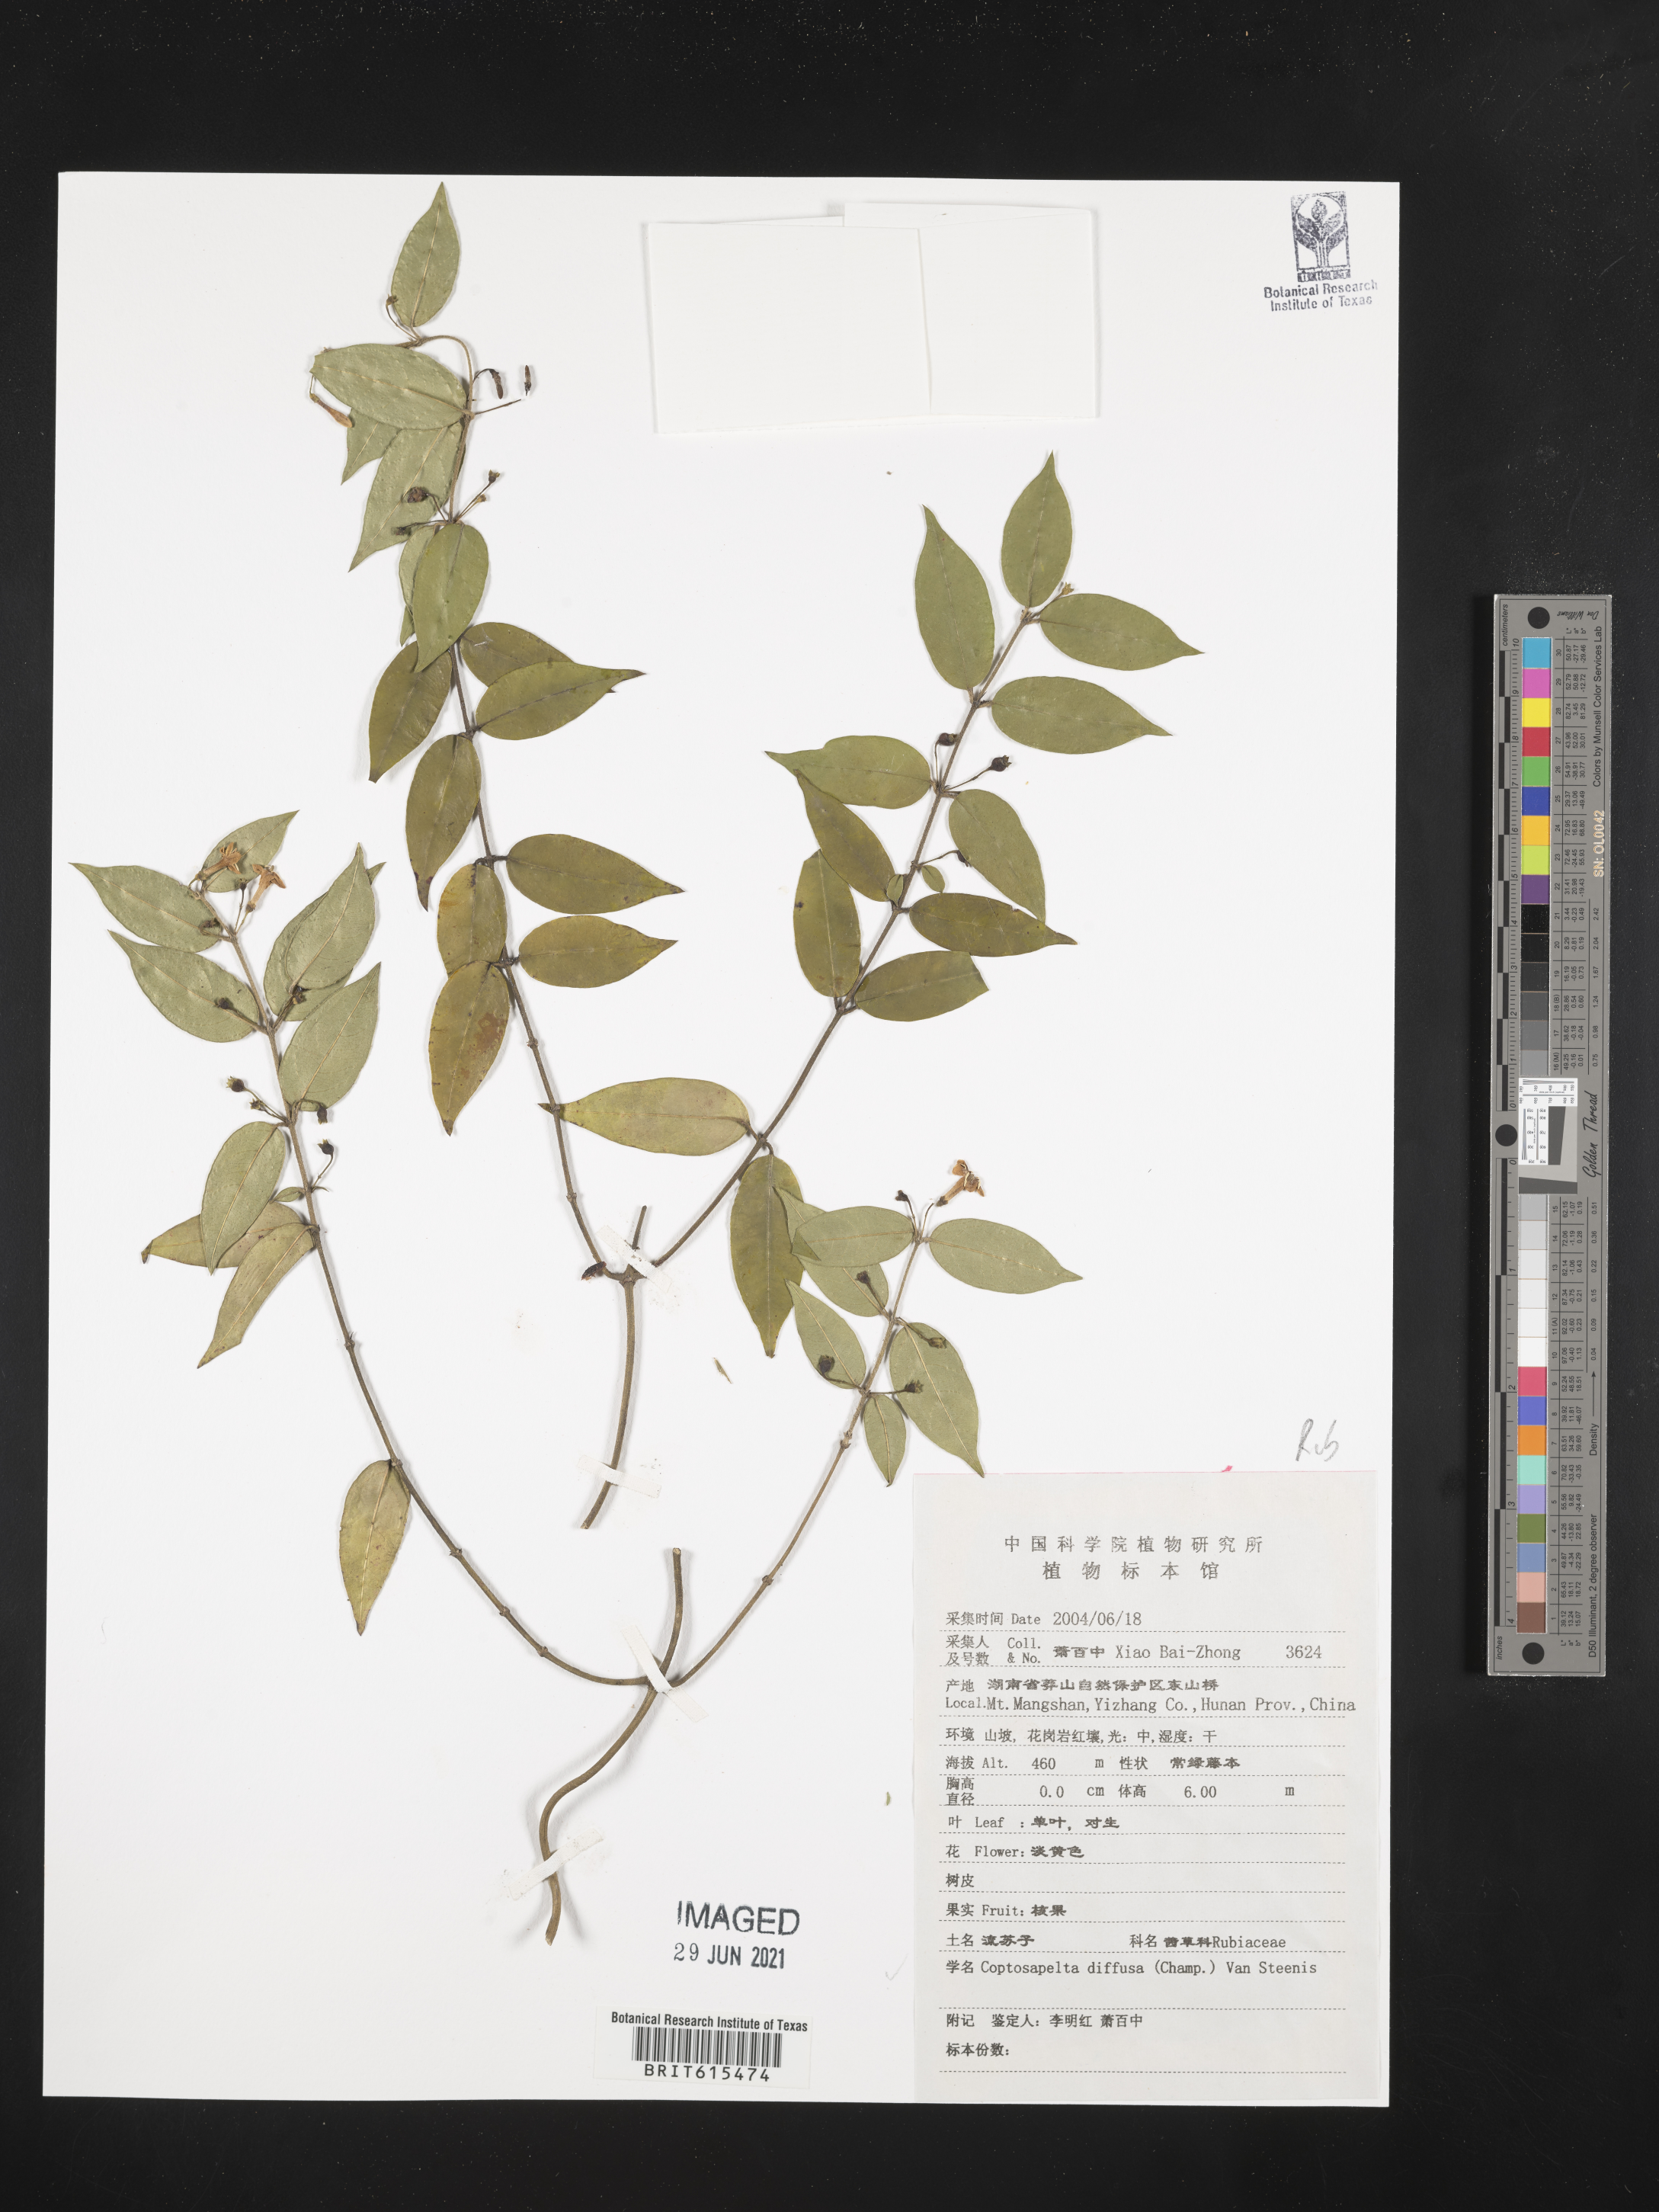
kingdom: Plantae
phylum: Tracheophyta
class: Magnoliopsida
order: Gentianales
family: Rubiaceae
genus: Coptosapelta
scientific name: Coptosapelta diffusa
